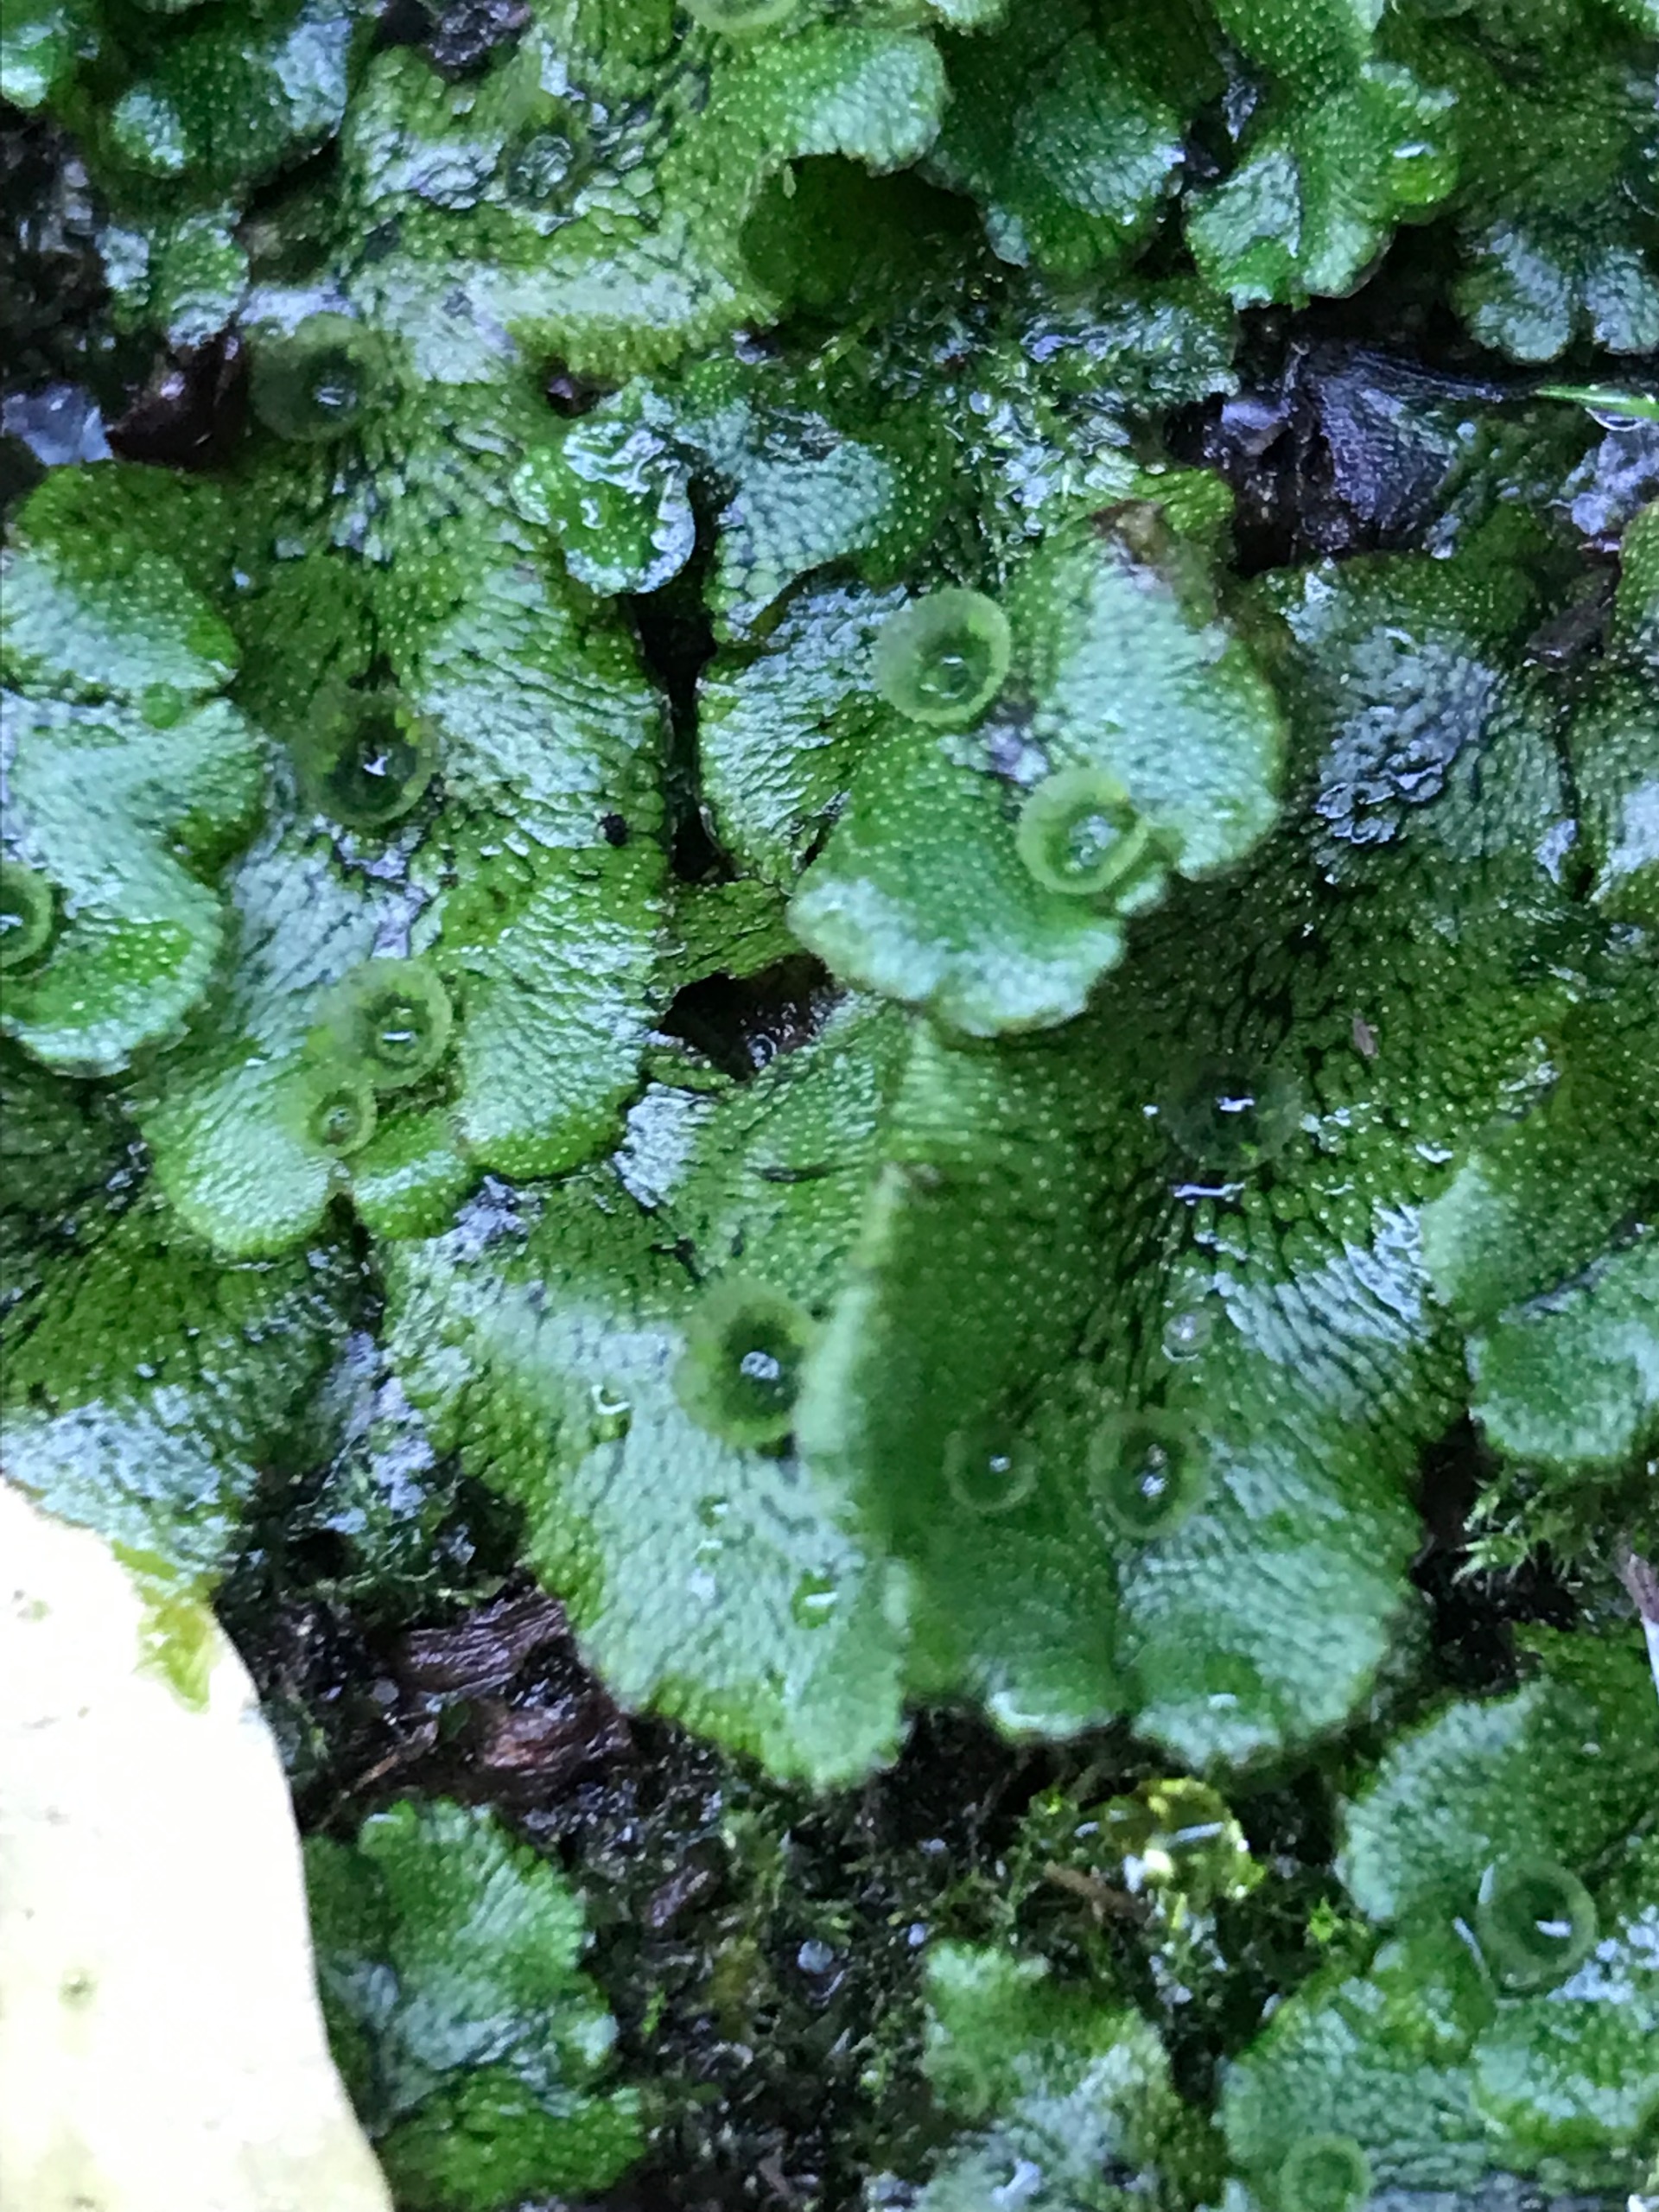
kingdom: Plantae
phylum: Marchantiophyta
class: Marchantiopsida
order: Marchantiales
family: Marchantiaceae
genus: Marchantia
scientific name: Marchantia polymorpha
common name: Almindelig lungemos (underart)
